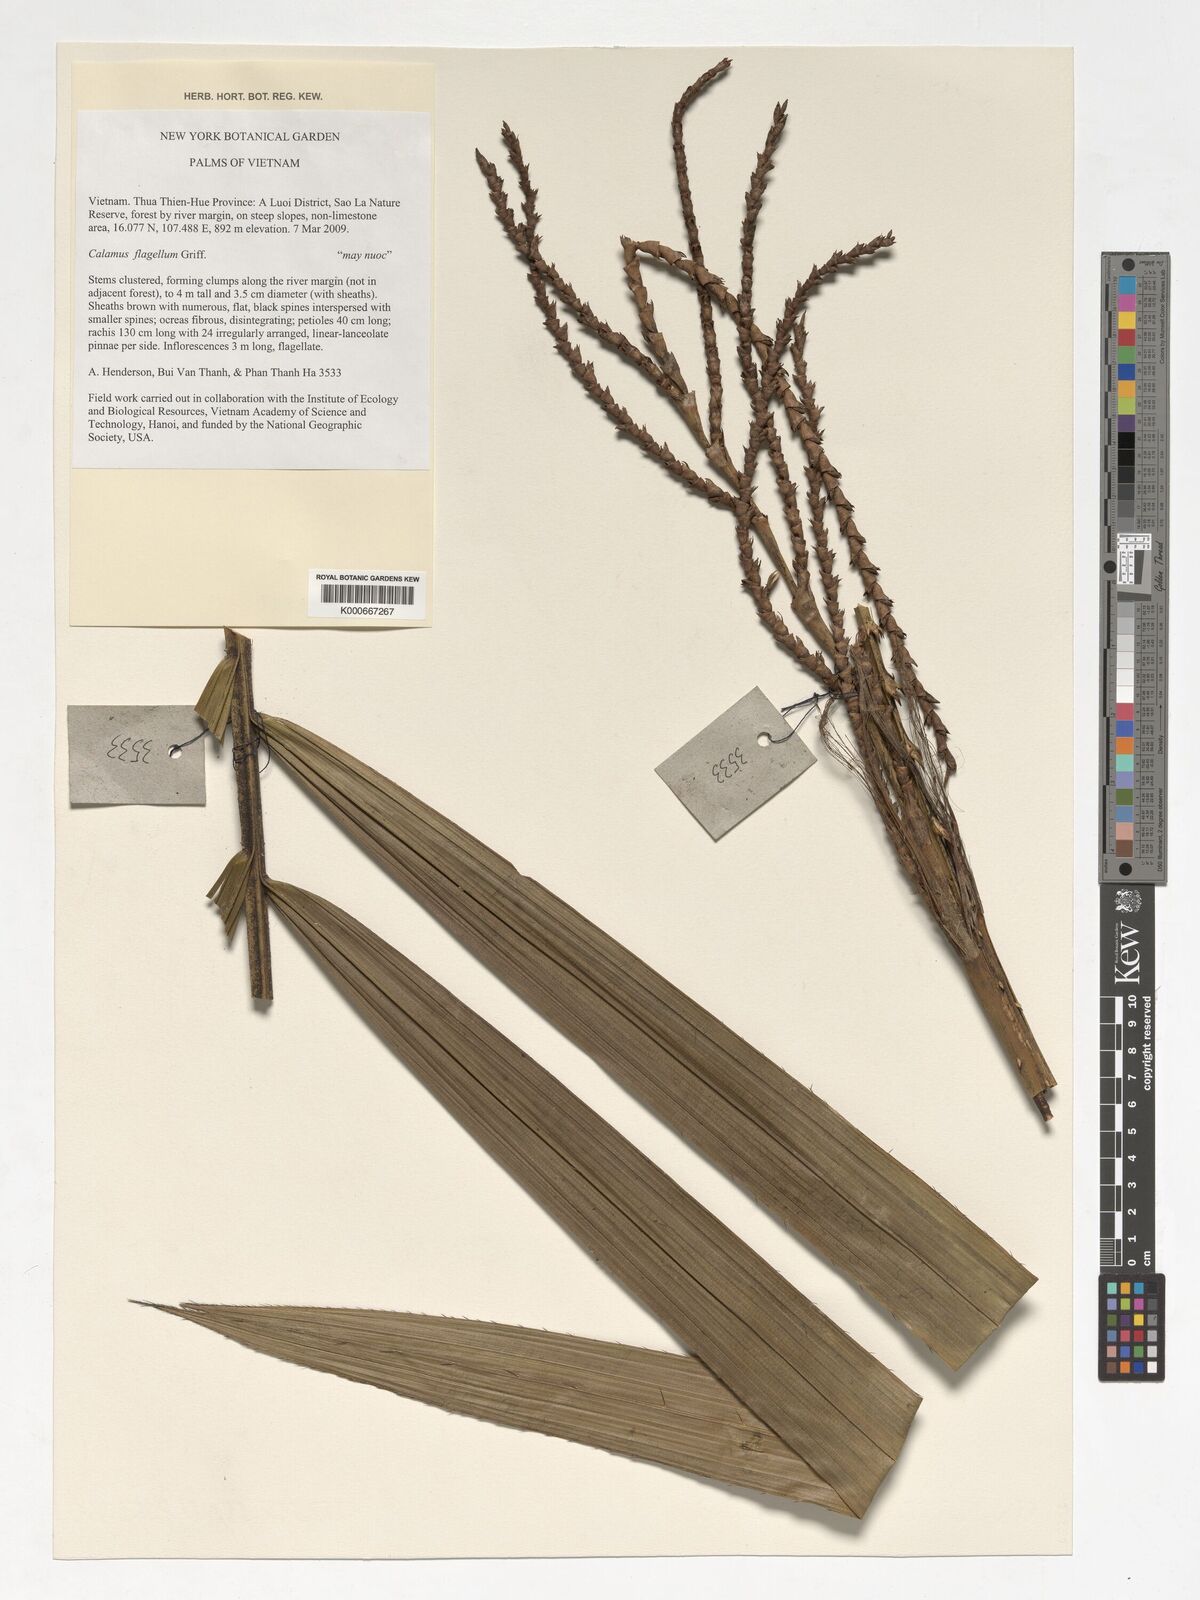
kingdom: Plantae
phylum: Tracheophyta
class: Liliopsida
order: Arecales
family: Arecaceae
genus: Calamus
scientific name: Calamus flagellum
